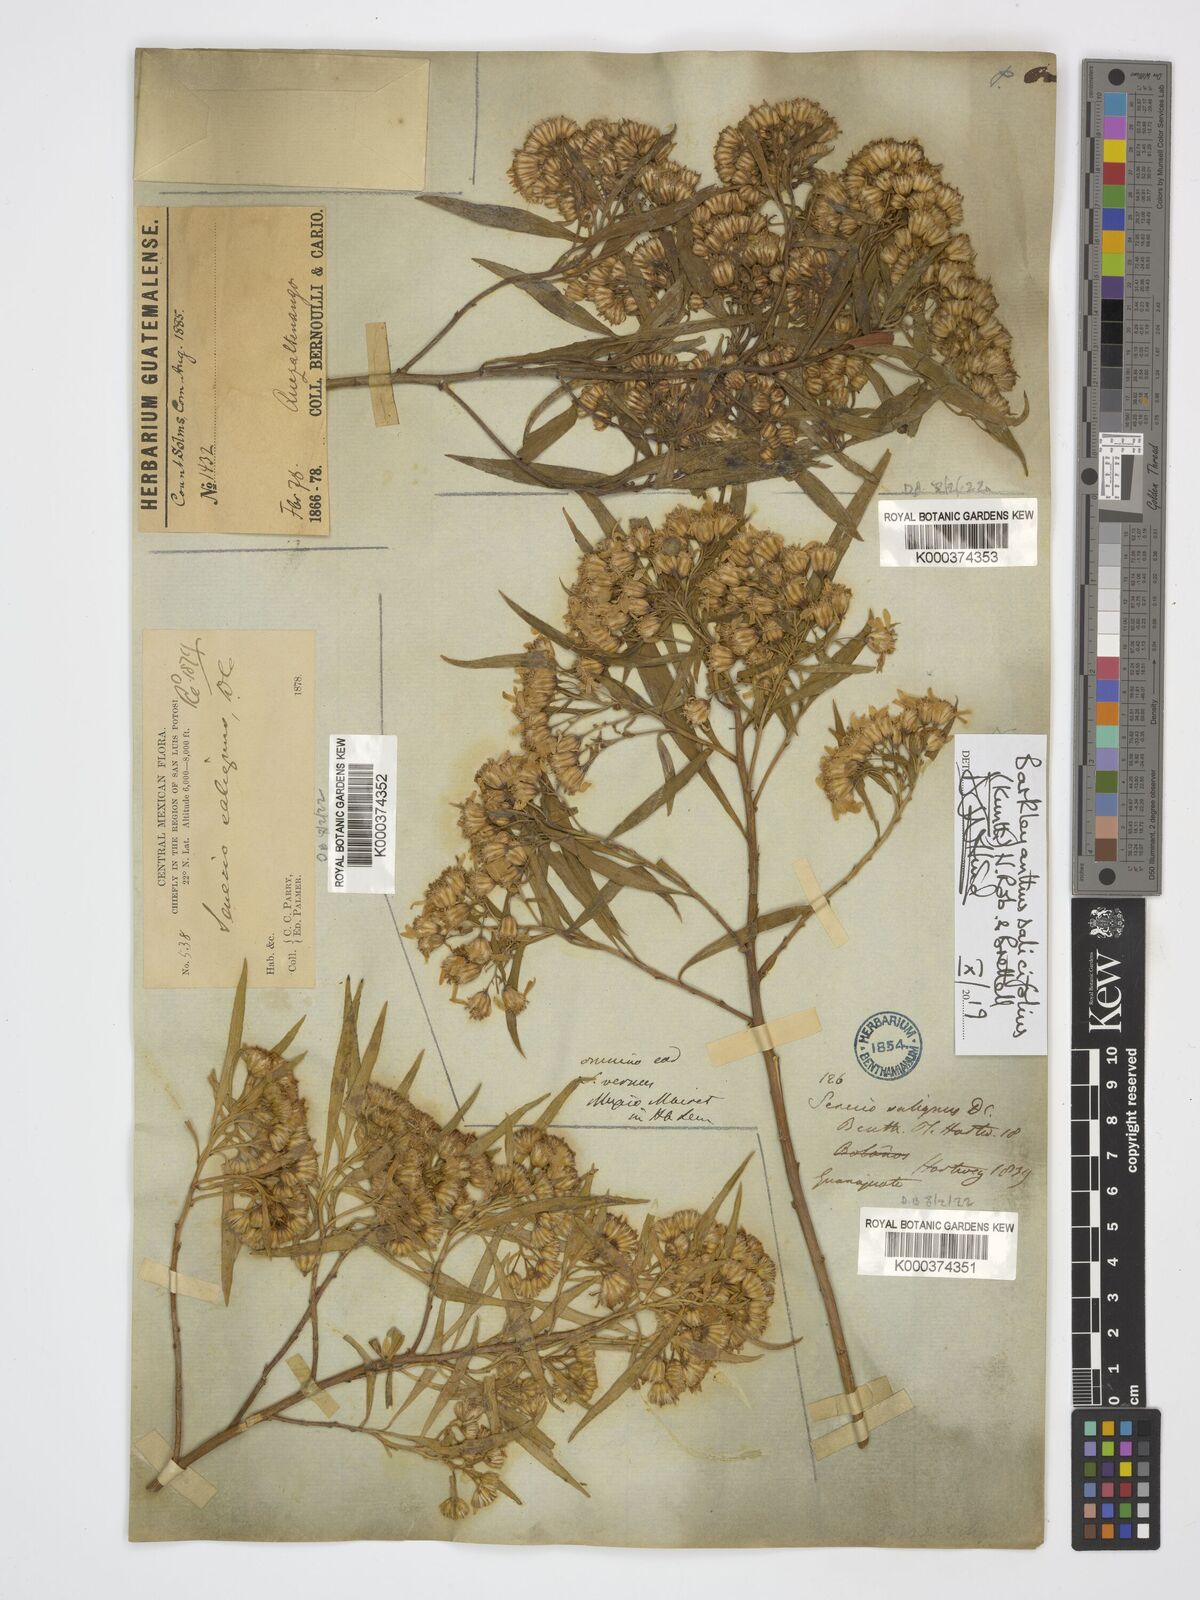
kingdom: Plantae
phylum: Tracheophyta
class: Magnoliopsida
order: Asterales
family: Asteraceae
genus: Barkleyanthus
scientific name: Barkleyanthus salicifolius
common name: Willow ragwort
